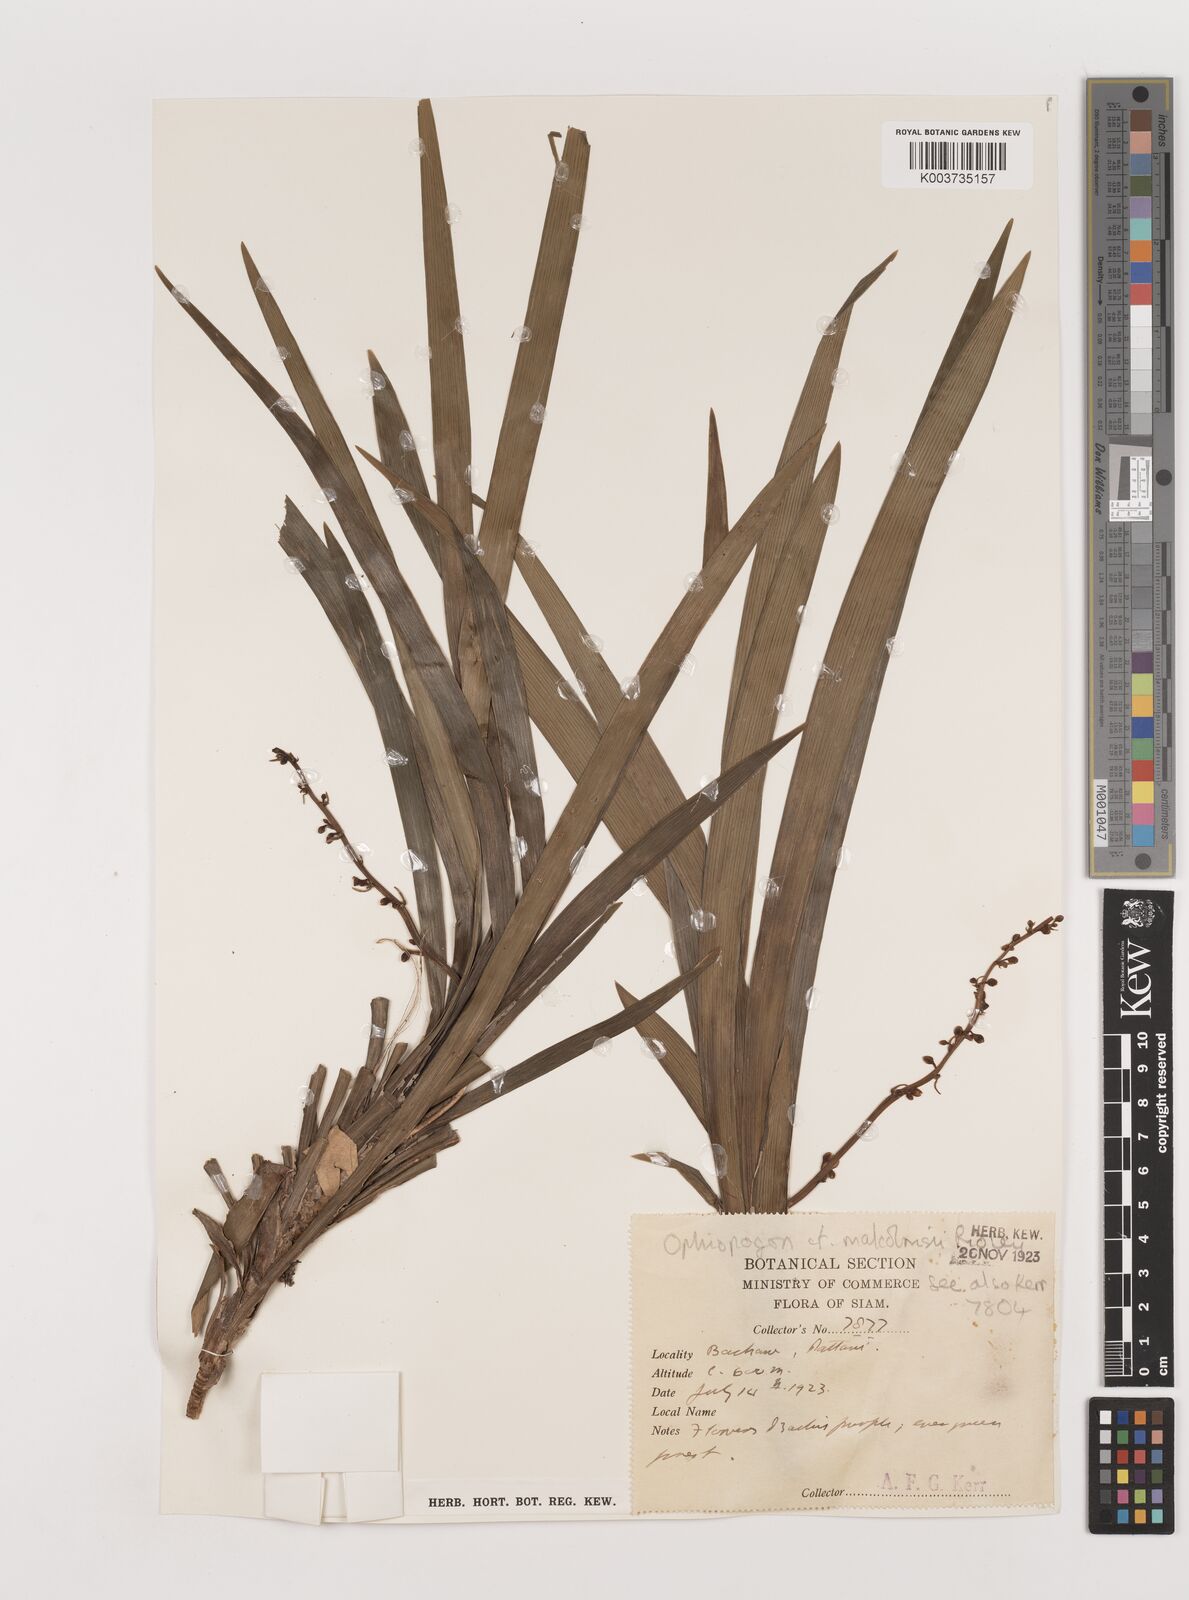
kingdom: Plantae
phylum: Tracheophyta
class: Liliopsida
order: Asparagales
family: Asparagaceae
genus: Ophiopogon
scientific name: Ophiopogon malcolmsonii
